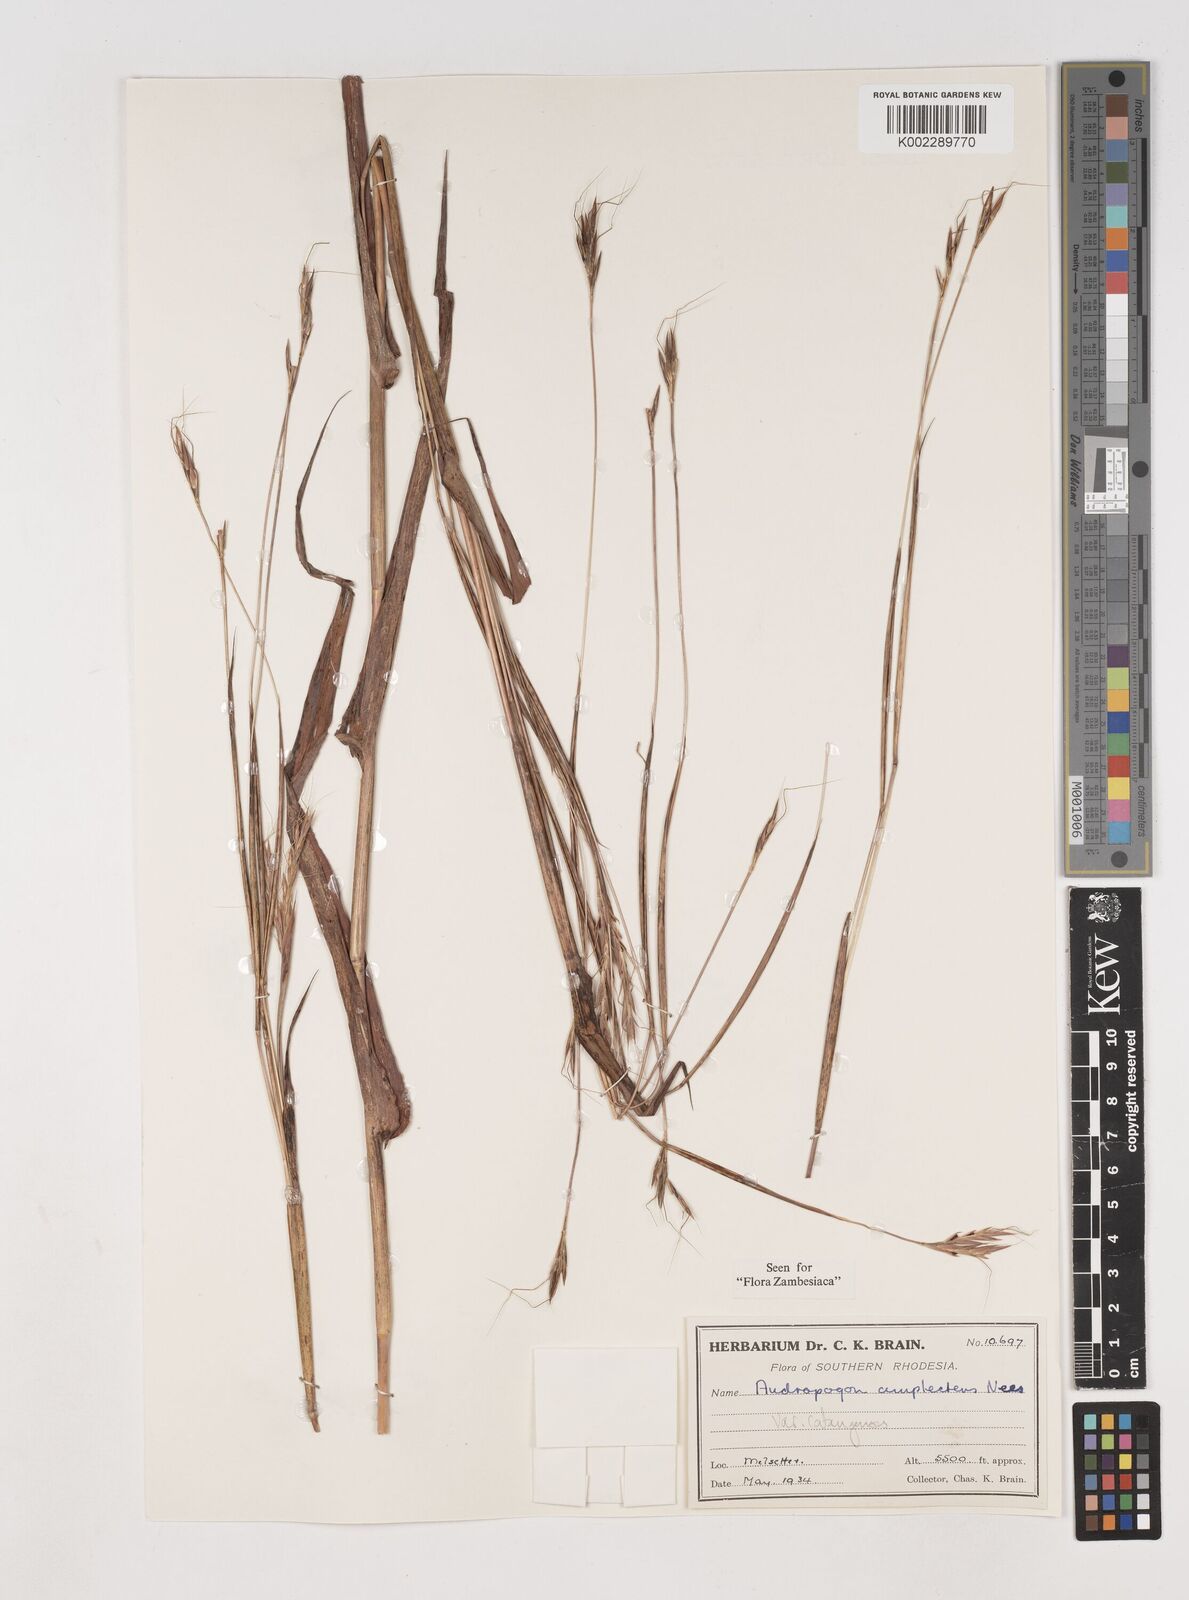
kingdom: Plantae
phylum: Tracheophyta
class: Liliopsida
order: Poales
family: Poaceae
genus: Diheteropogon
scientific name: Diheteropogon amplectens
